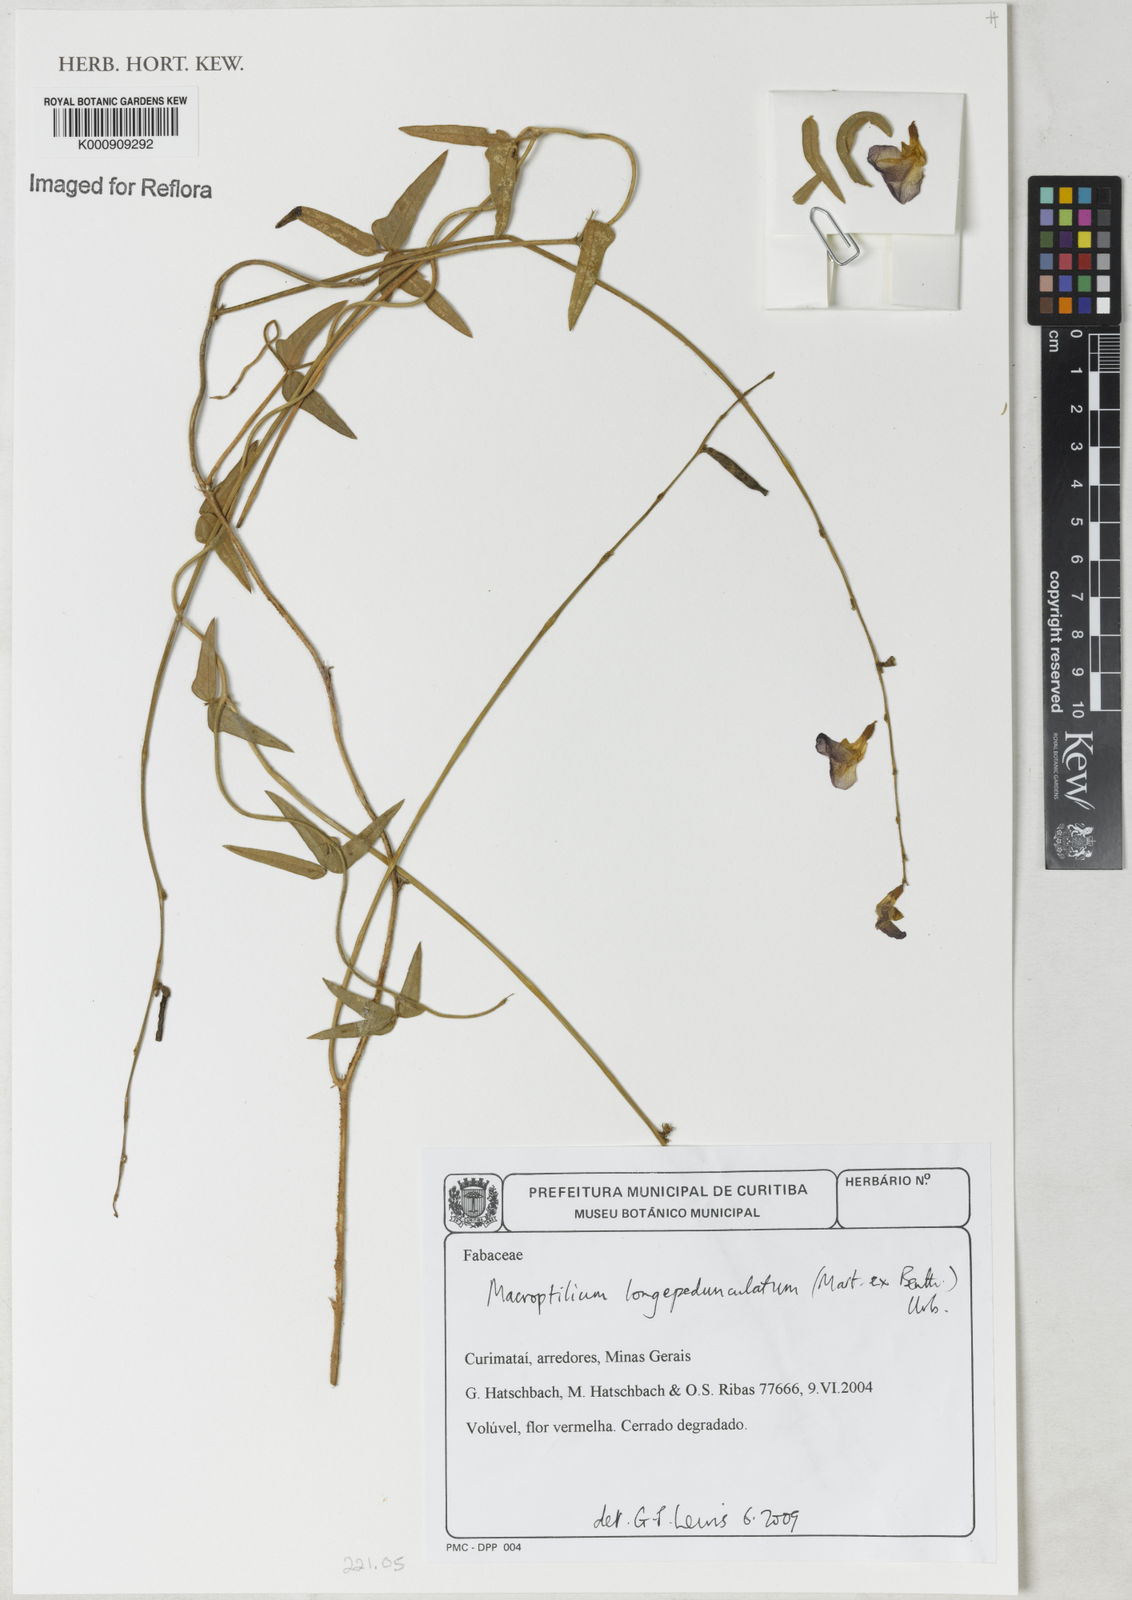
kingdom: Plantae
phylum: Tracheophyta
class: Magnoliopsida
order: Fabales
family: Fabaceae
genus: Macroptilium
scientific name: Macroptilium
